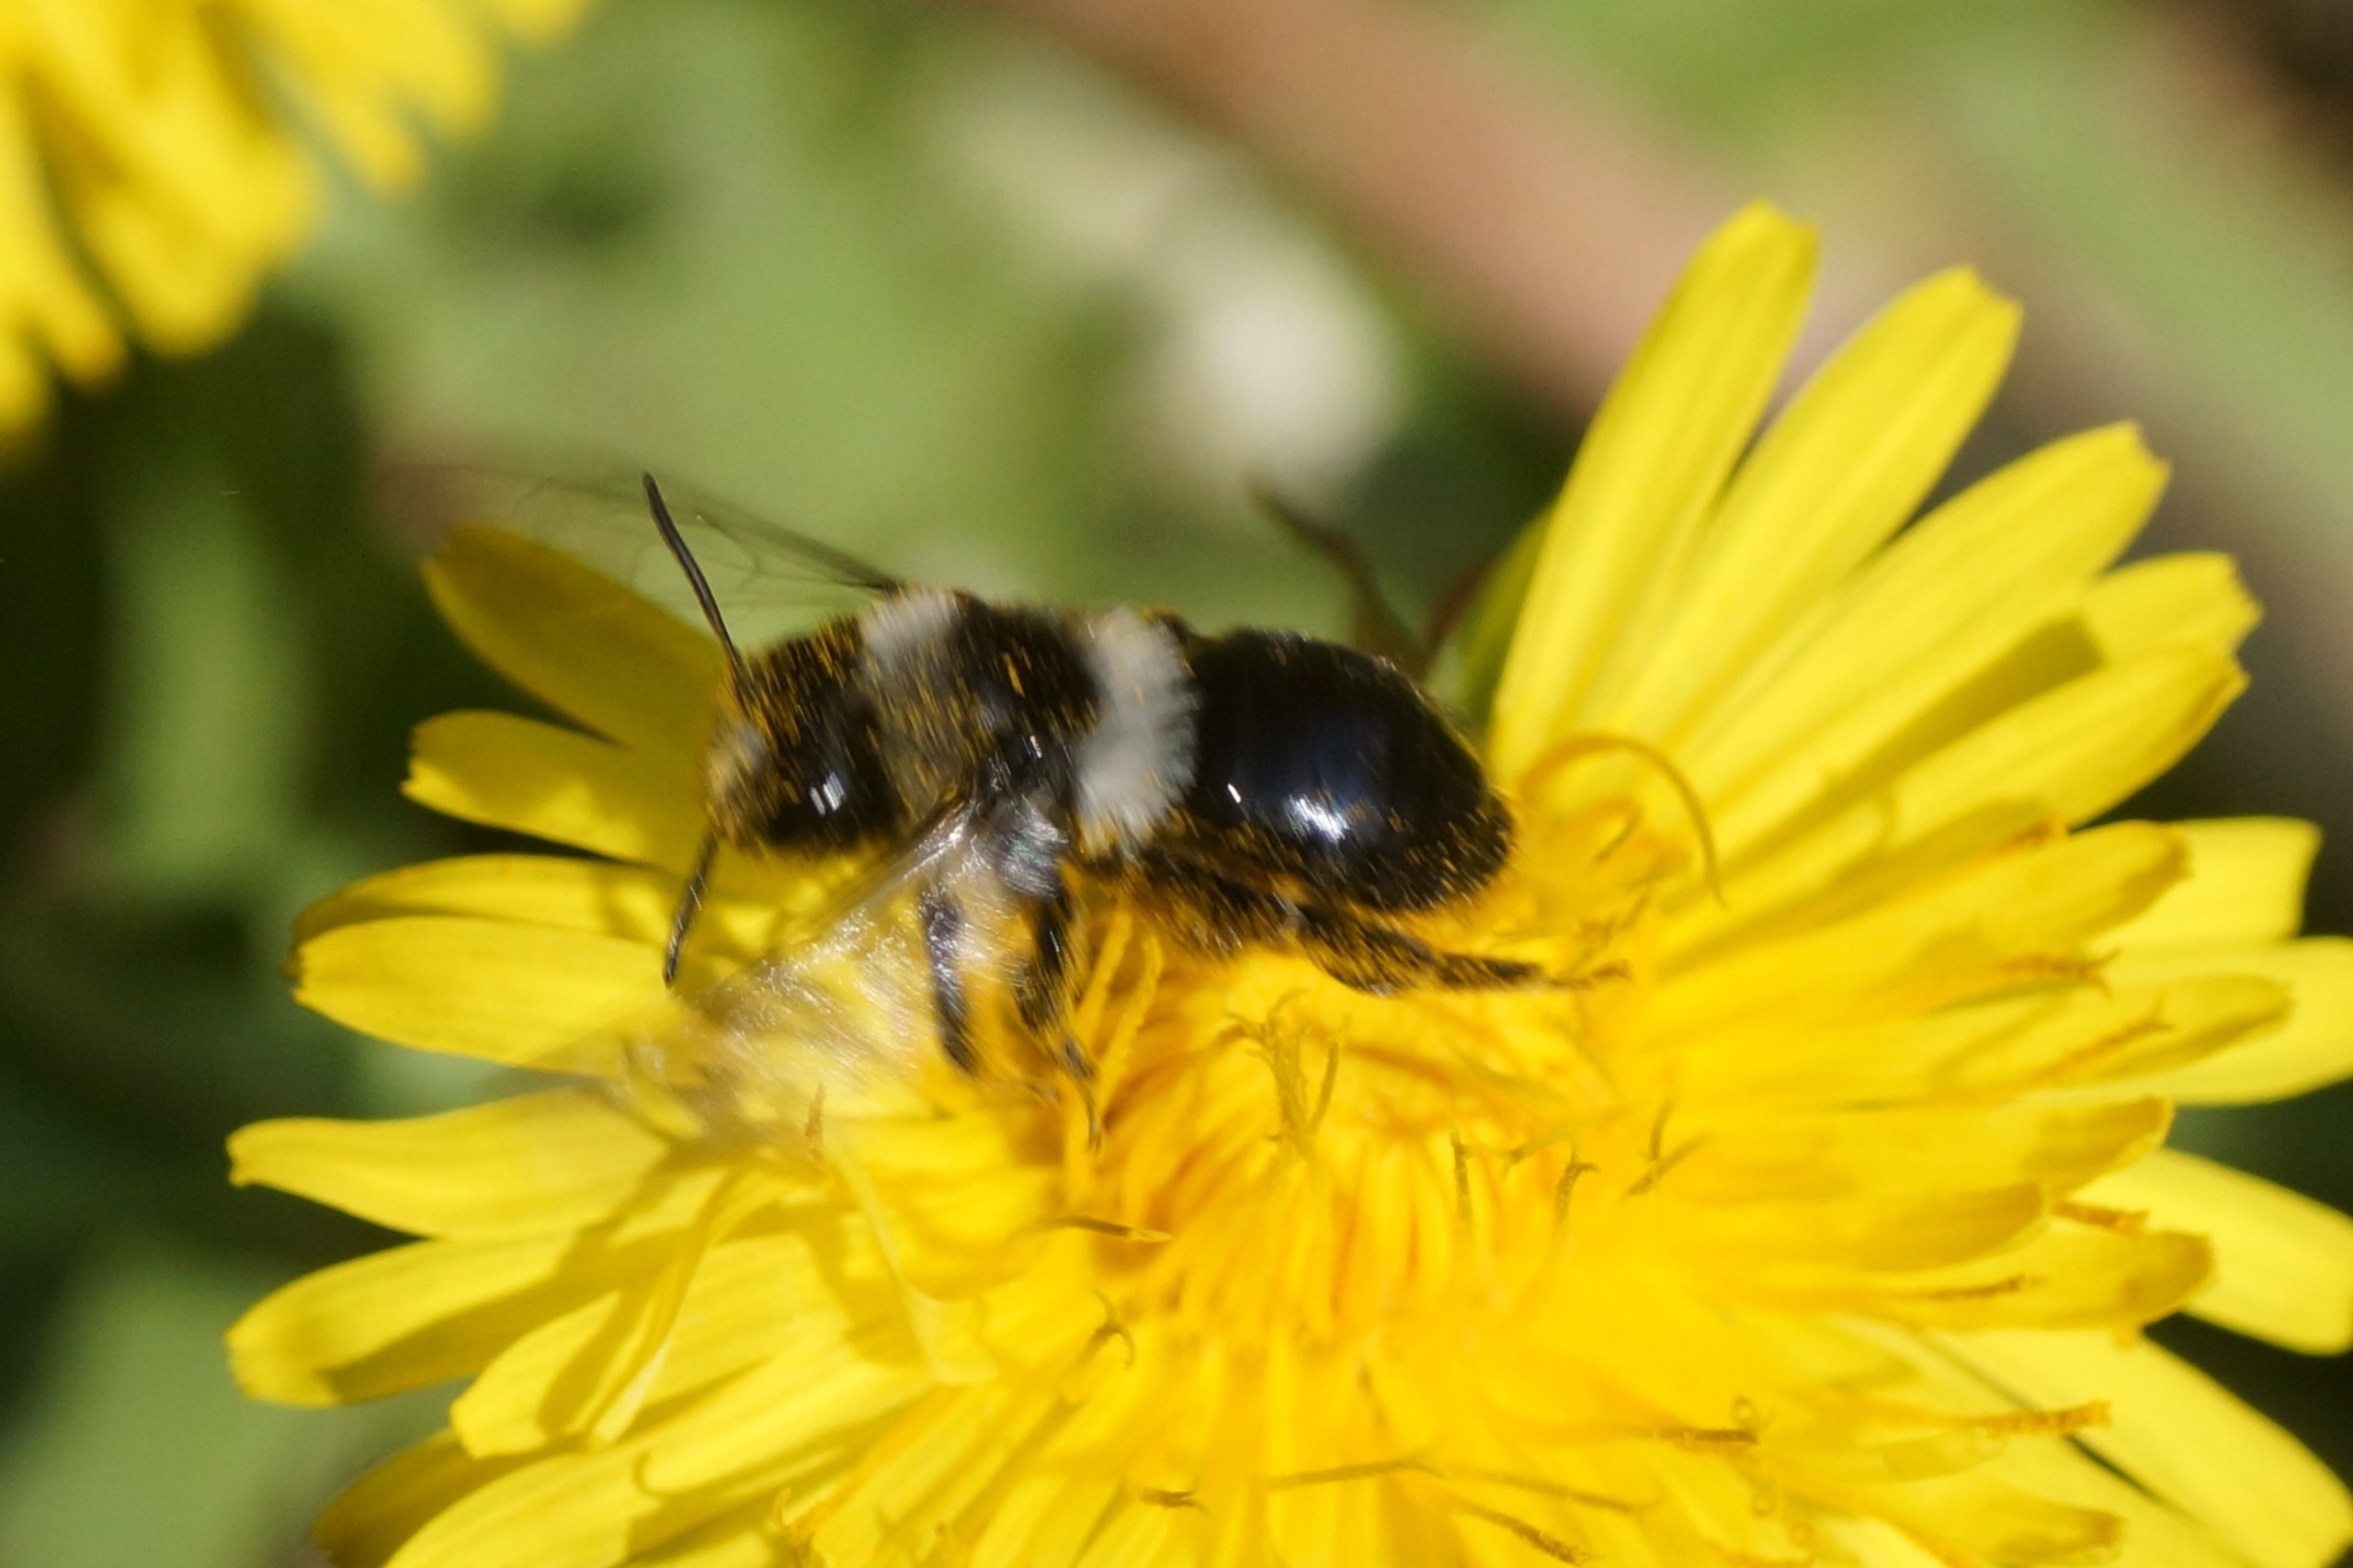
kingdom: Animalia
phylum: Arthropoda
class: Insecta
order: Hymenoptera
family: Andrenidae
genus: Andrena
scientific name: Andrena cineraria
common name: Sorthvid jordbi
